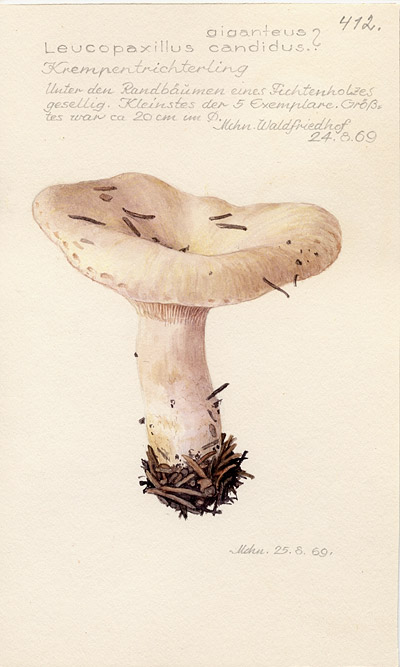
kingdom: Fungi
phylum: Basidiomycota
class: Agaricomycetes
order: Agaricales
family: Tricholomataceae
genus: Aspropaxillus
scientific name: Aspropaxillus candidus
